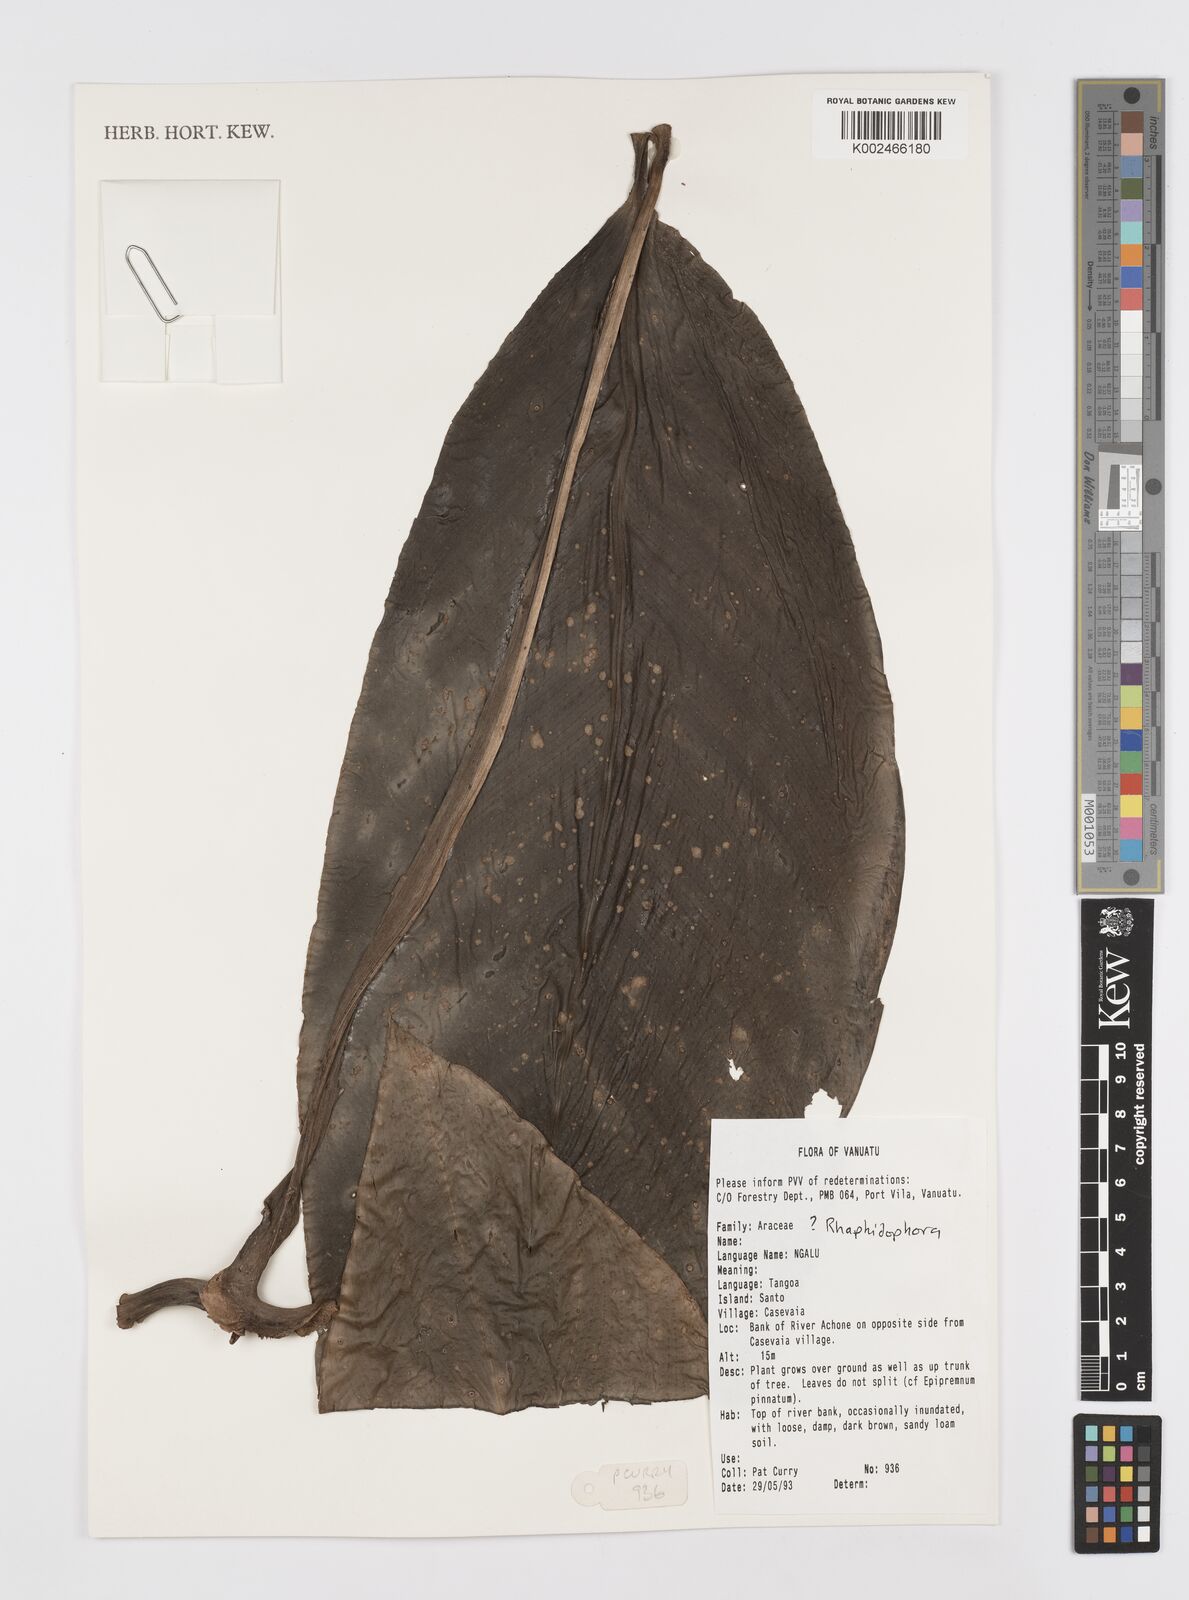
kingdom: Plantae
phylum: Tracheophyta
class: Liliopsida
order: Alismatales
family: Araceae
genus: Rhaphidophora
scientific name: Rhaphidophora
